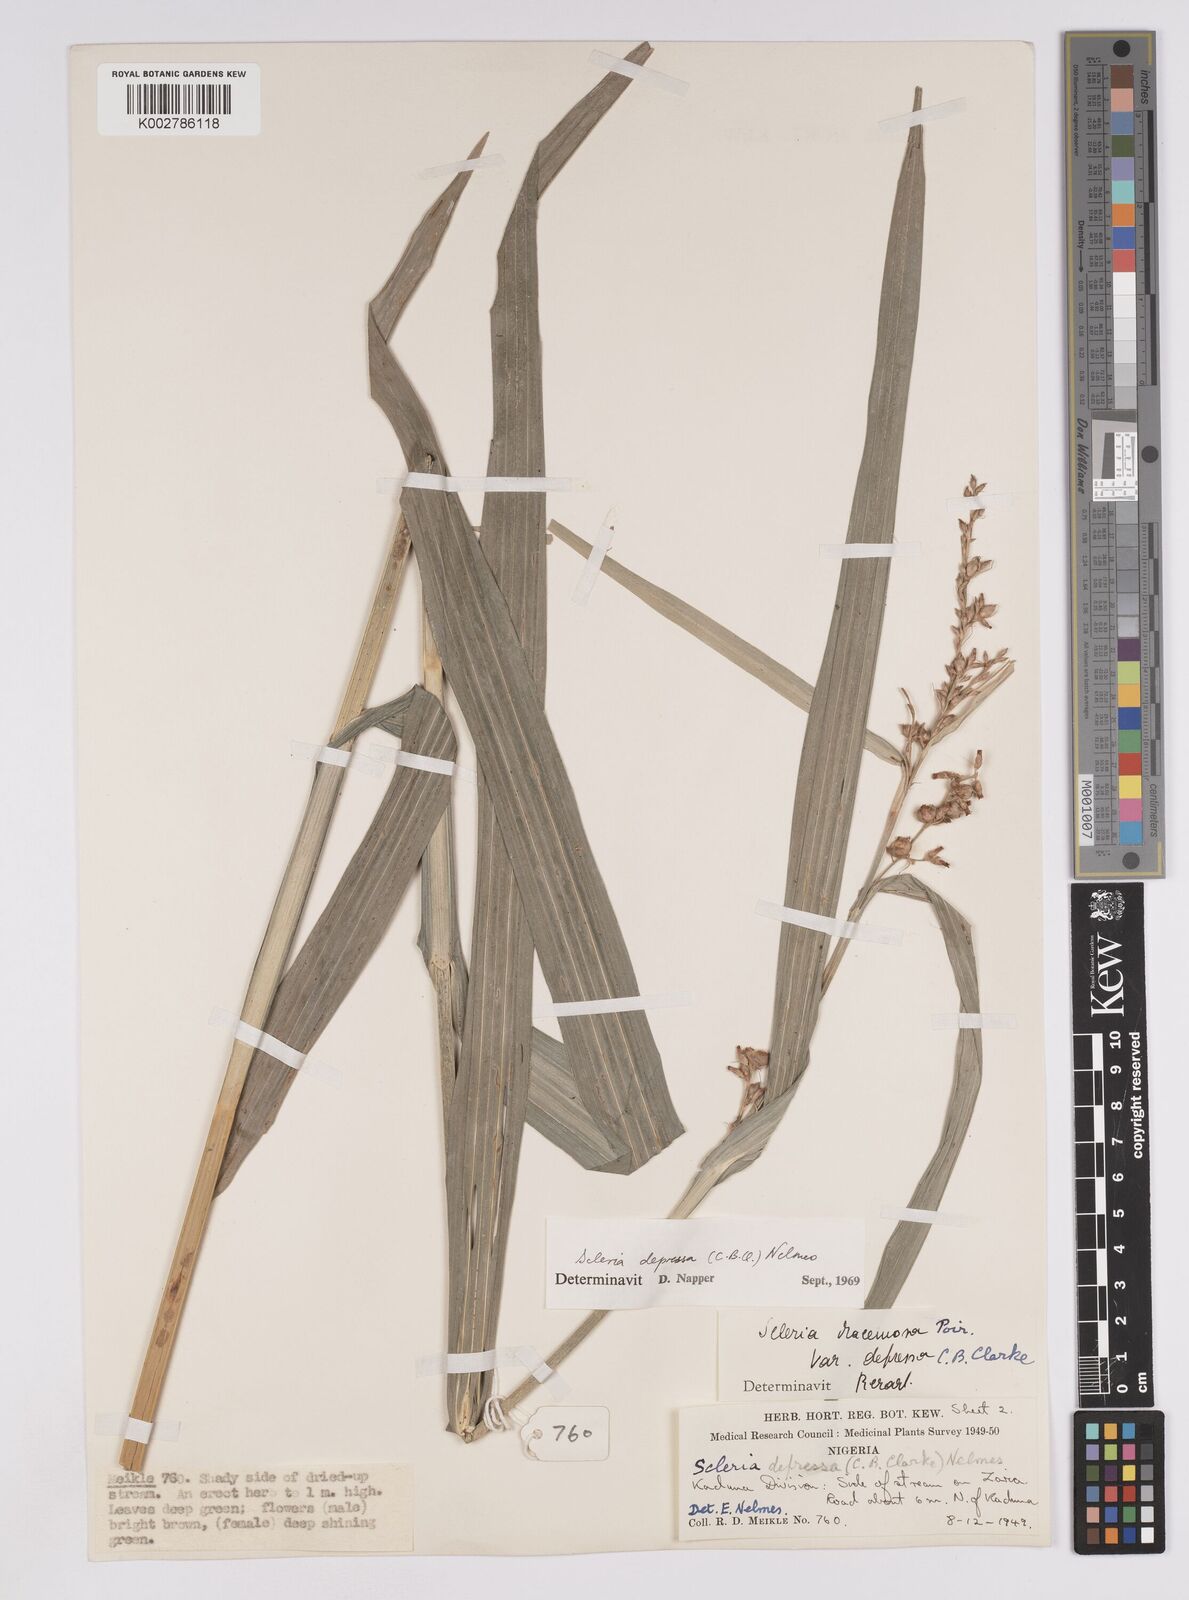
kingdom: Plantae
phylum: Tracheophyta
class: Liliopsida
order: Poales
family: Cyperaceae
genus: Scleria
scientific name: Scleria depressa
